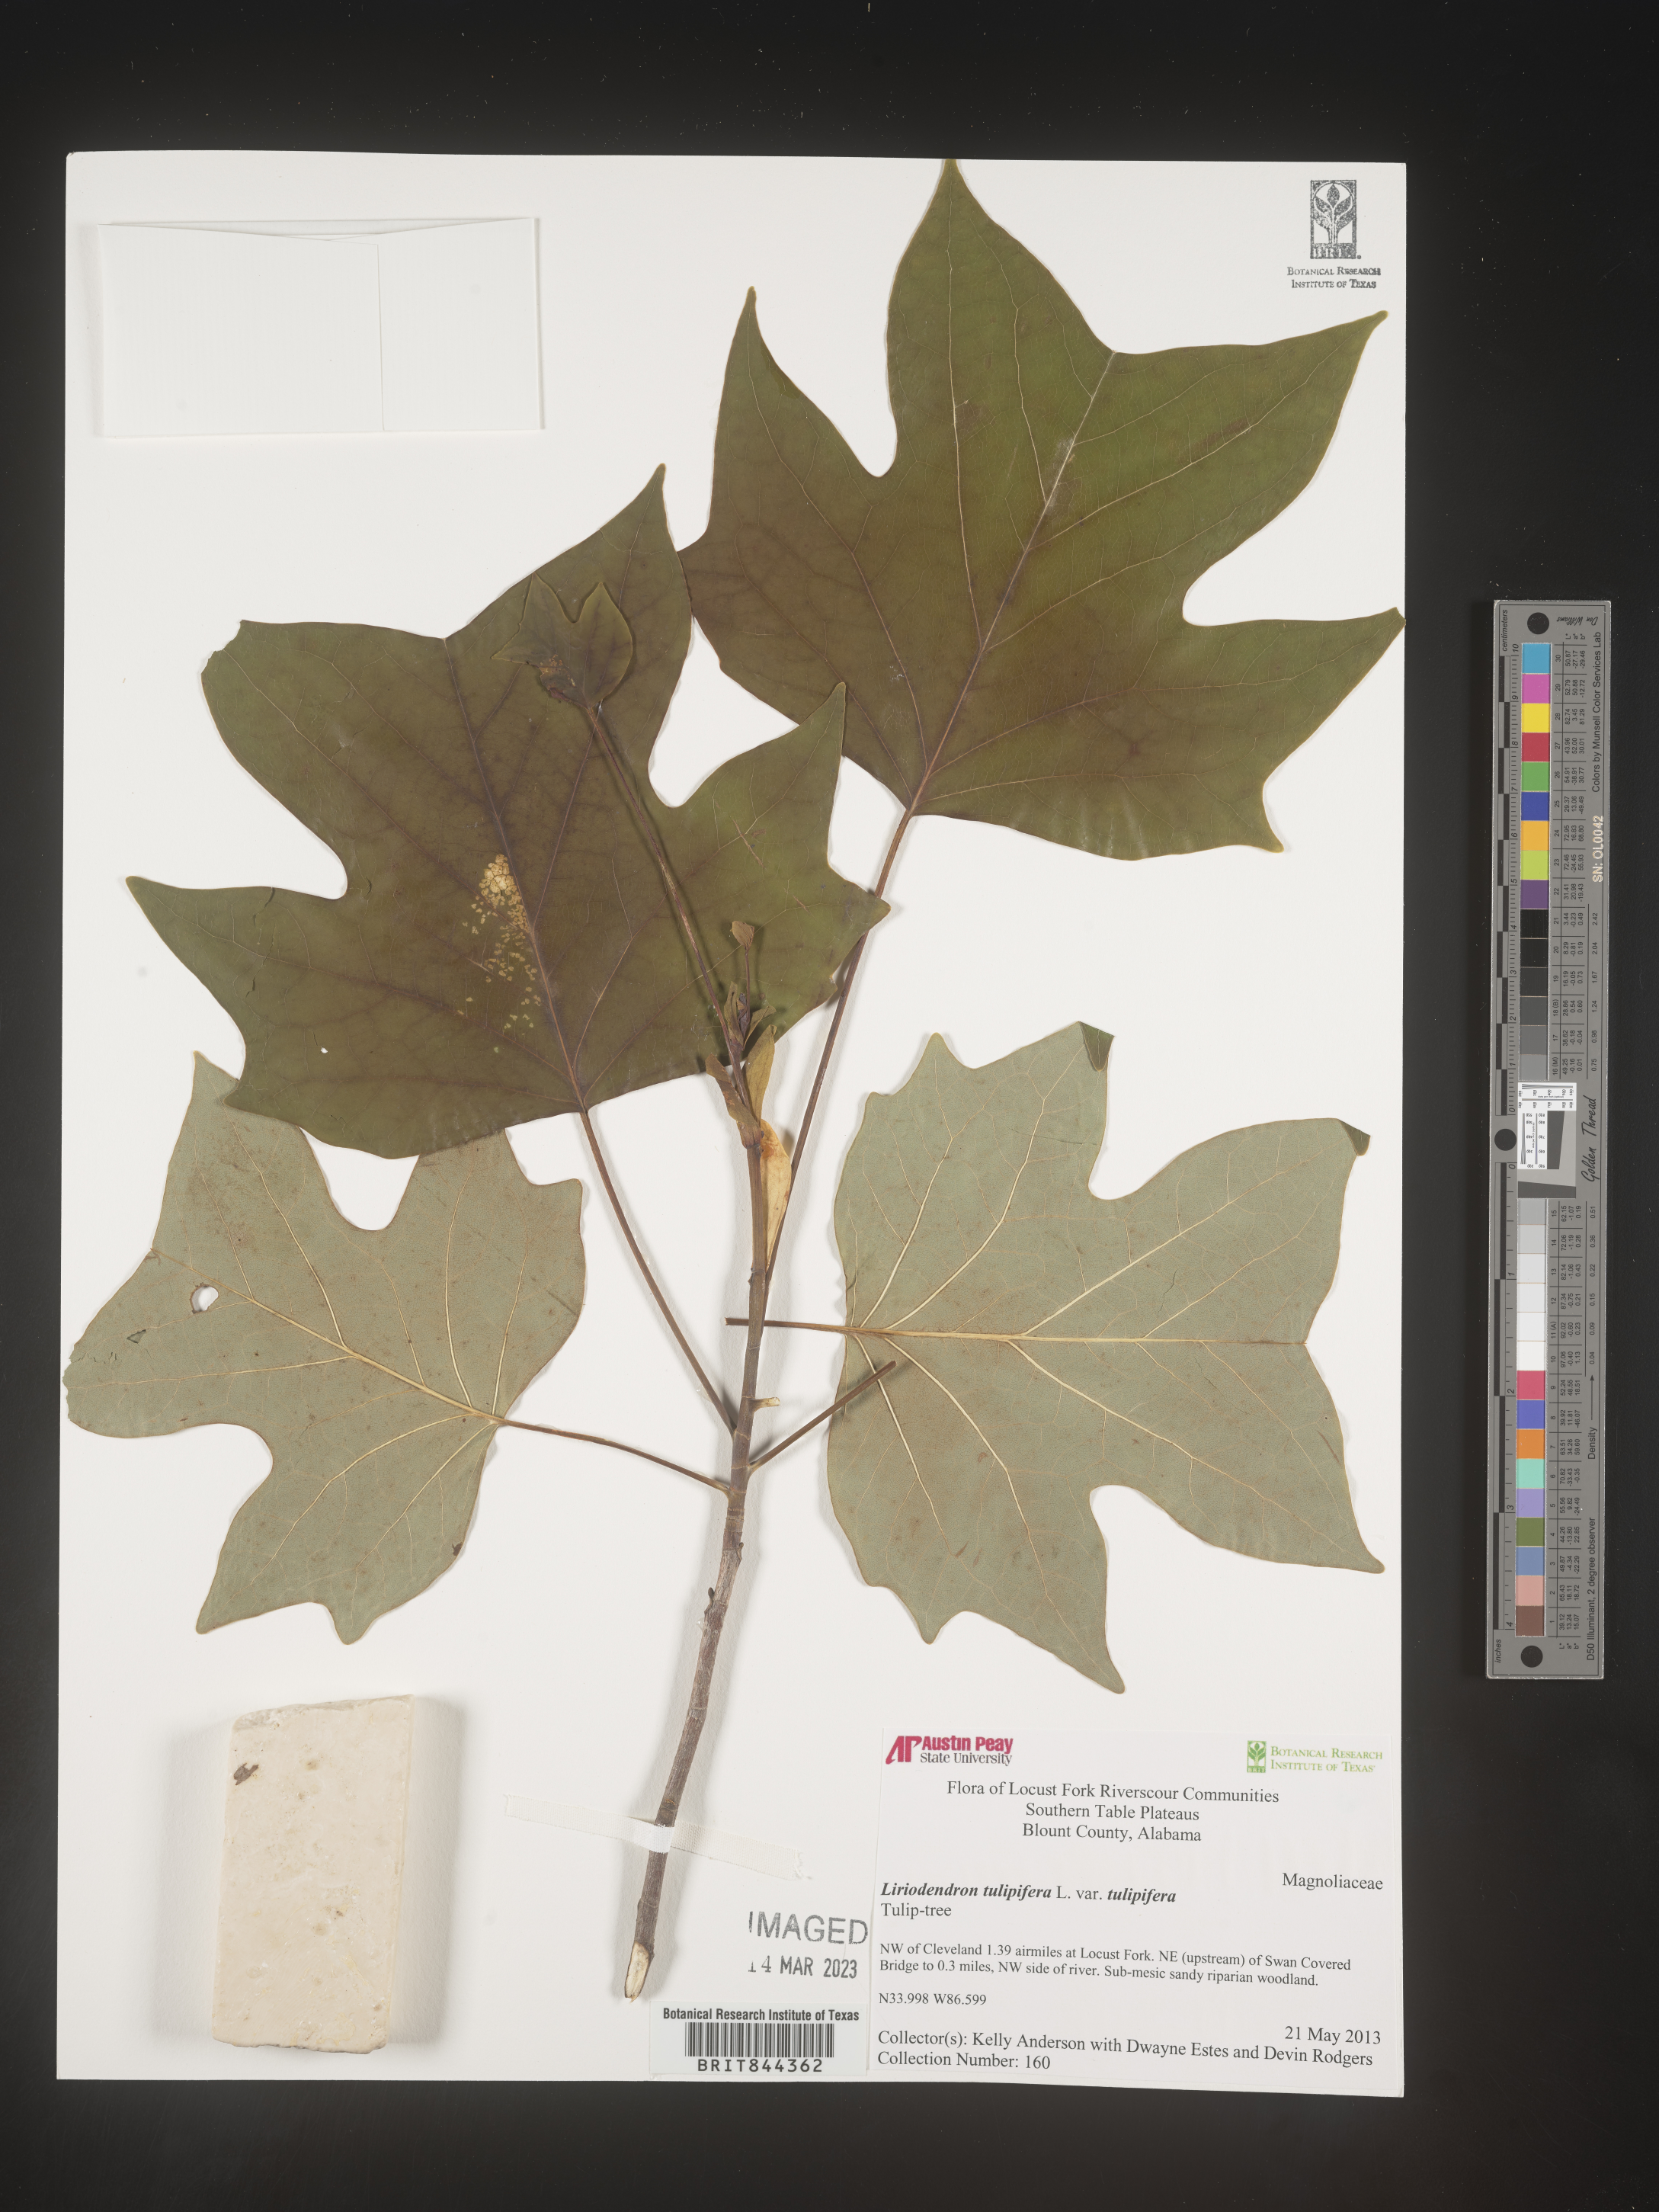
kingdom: Plantae
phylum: Tracheophyta
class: Magnoliopsida
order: Magnoliales
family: Magnoliaceae
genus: Liriodendron
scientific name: Liriodendron tulipifera
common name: Tulip tree
